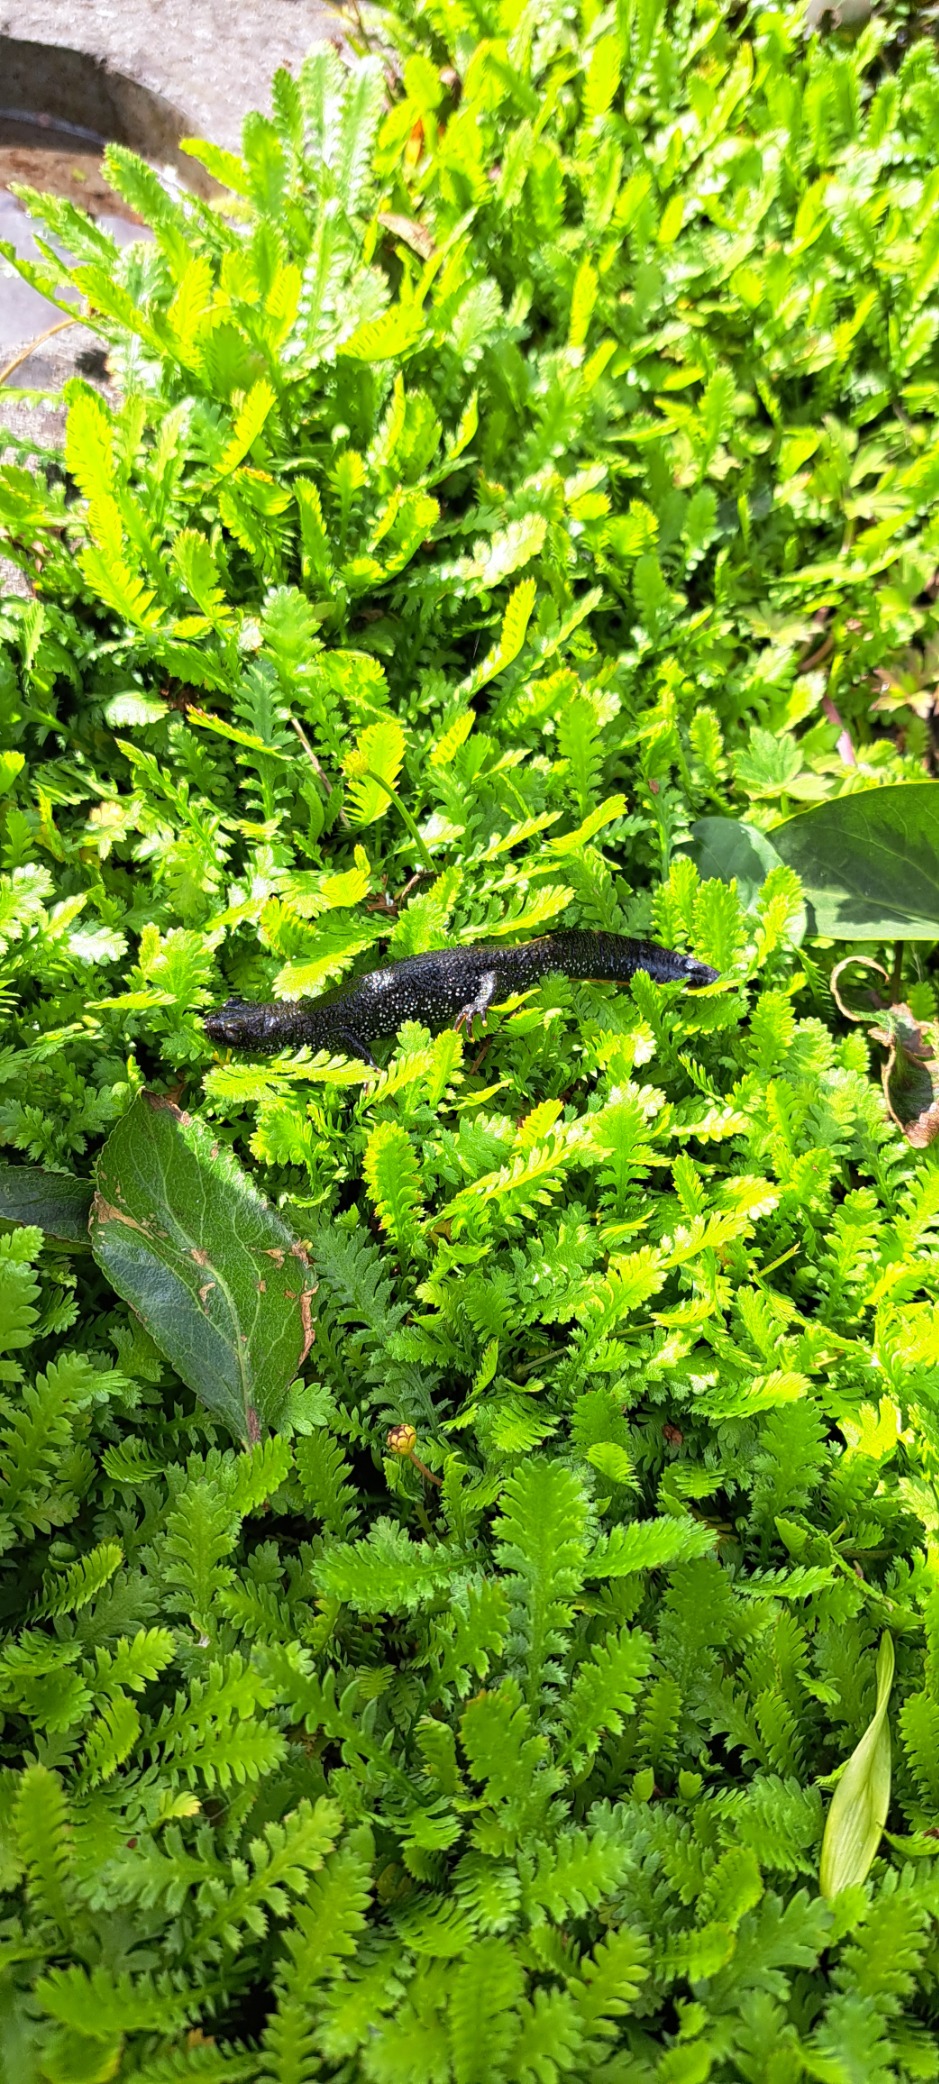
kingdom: Animalia
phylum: Chordata
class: Amphibia
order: Caudata
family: Salamandridae
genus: Triturus
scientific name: Triturus cristatus
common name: Stor vandsalamander
